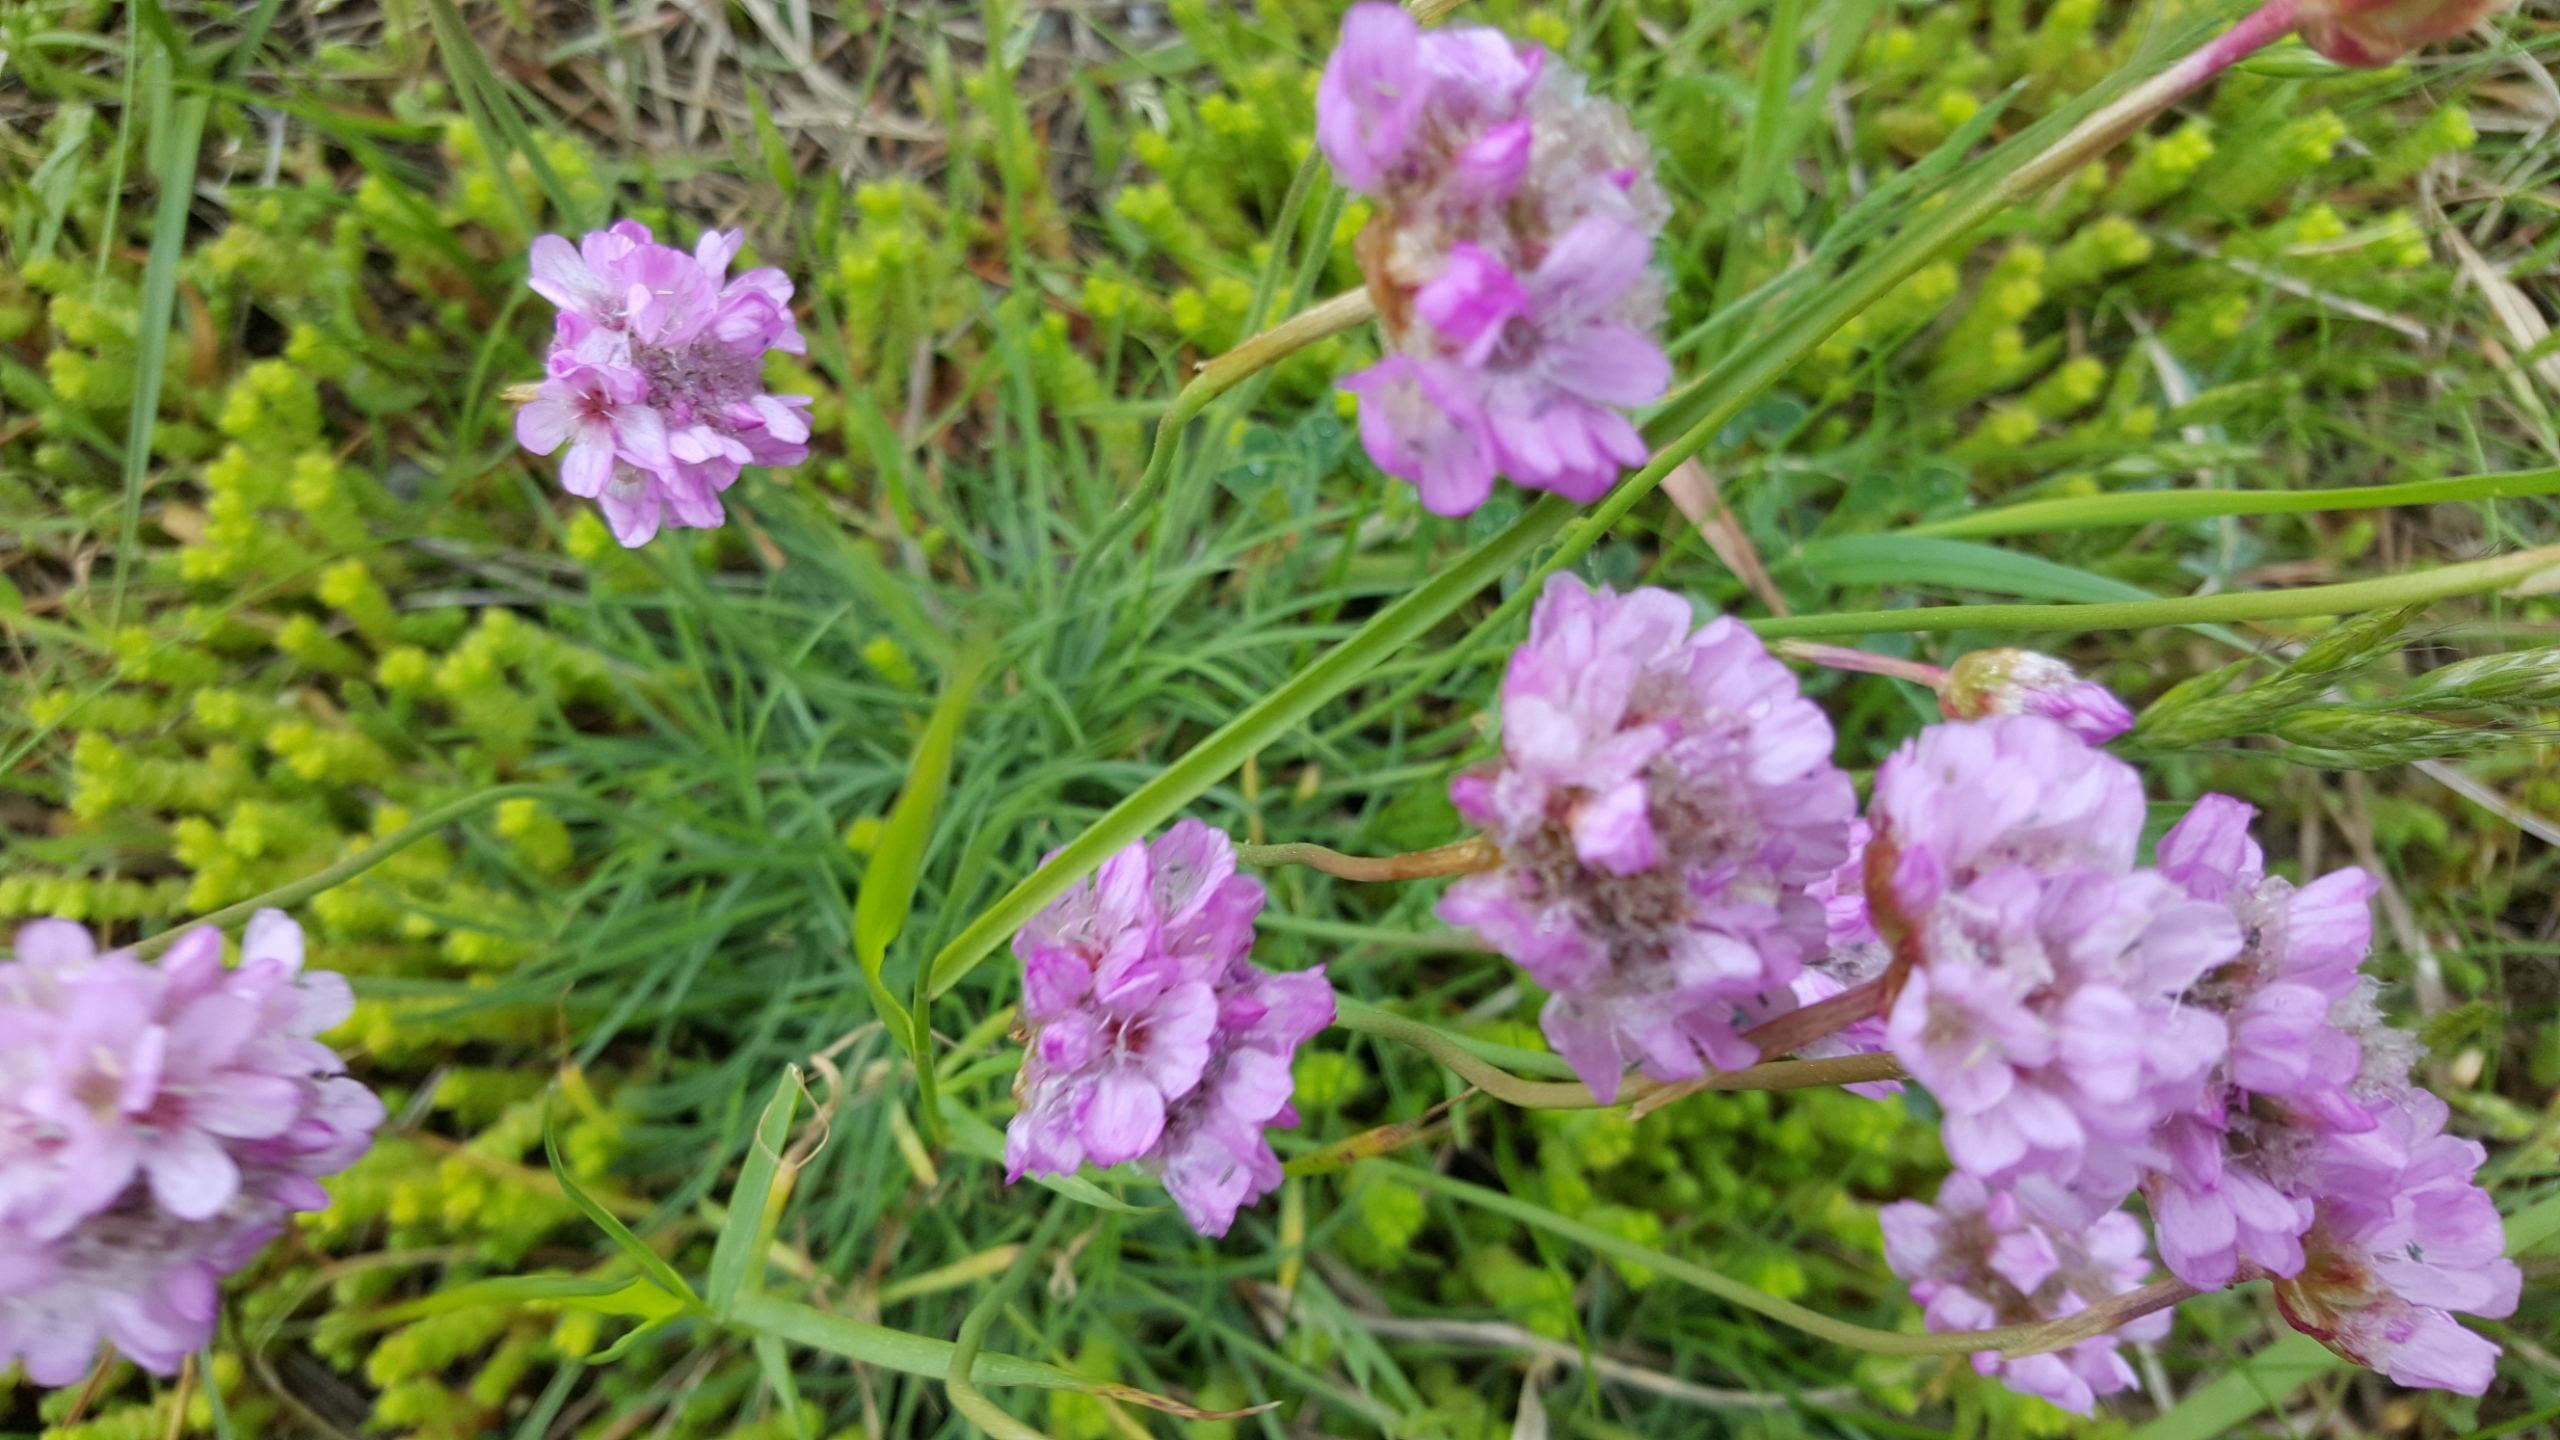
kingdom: Plantae
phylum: Tracheophyta
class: Magnoliopsida
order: Caryophyllales
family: Plumbaginaceae
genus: Armeria
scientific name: Armeria maritima
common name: Engelskgræs
